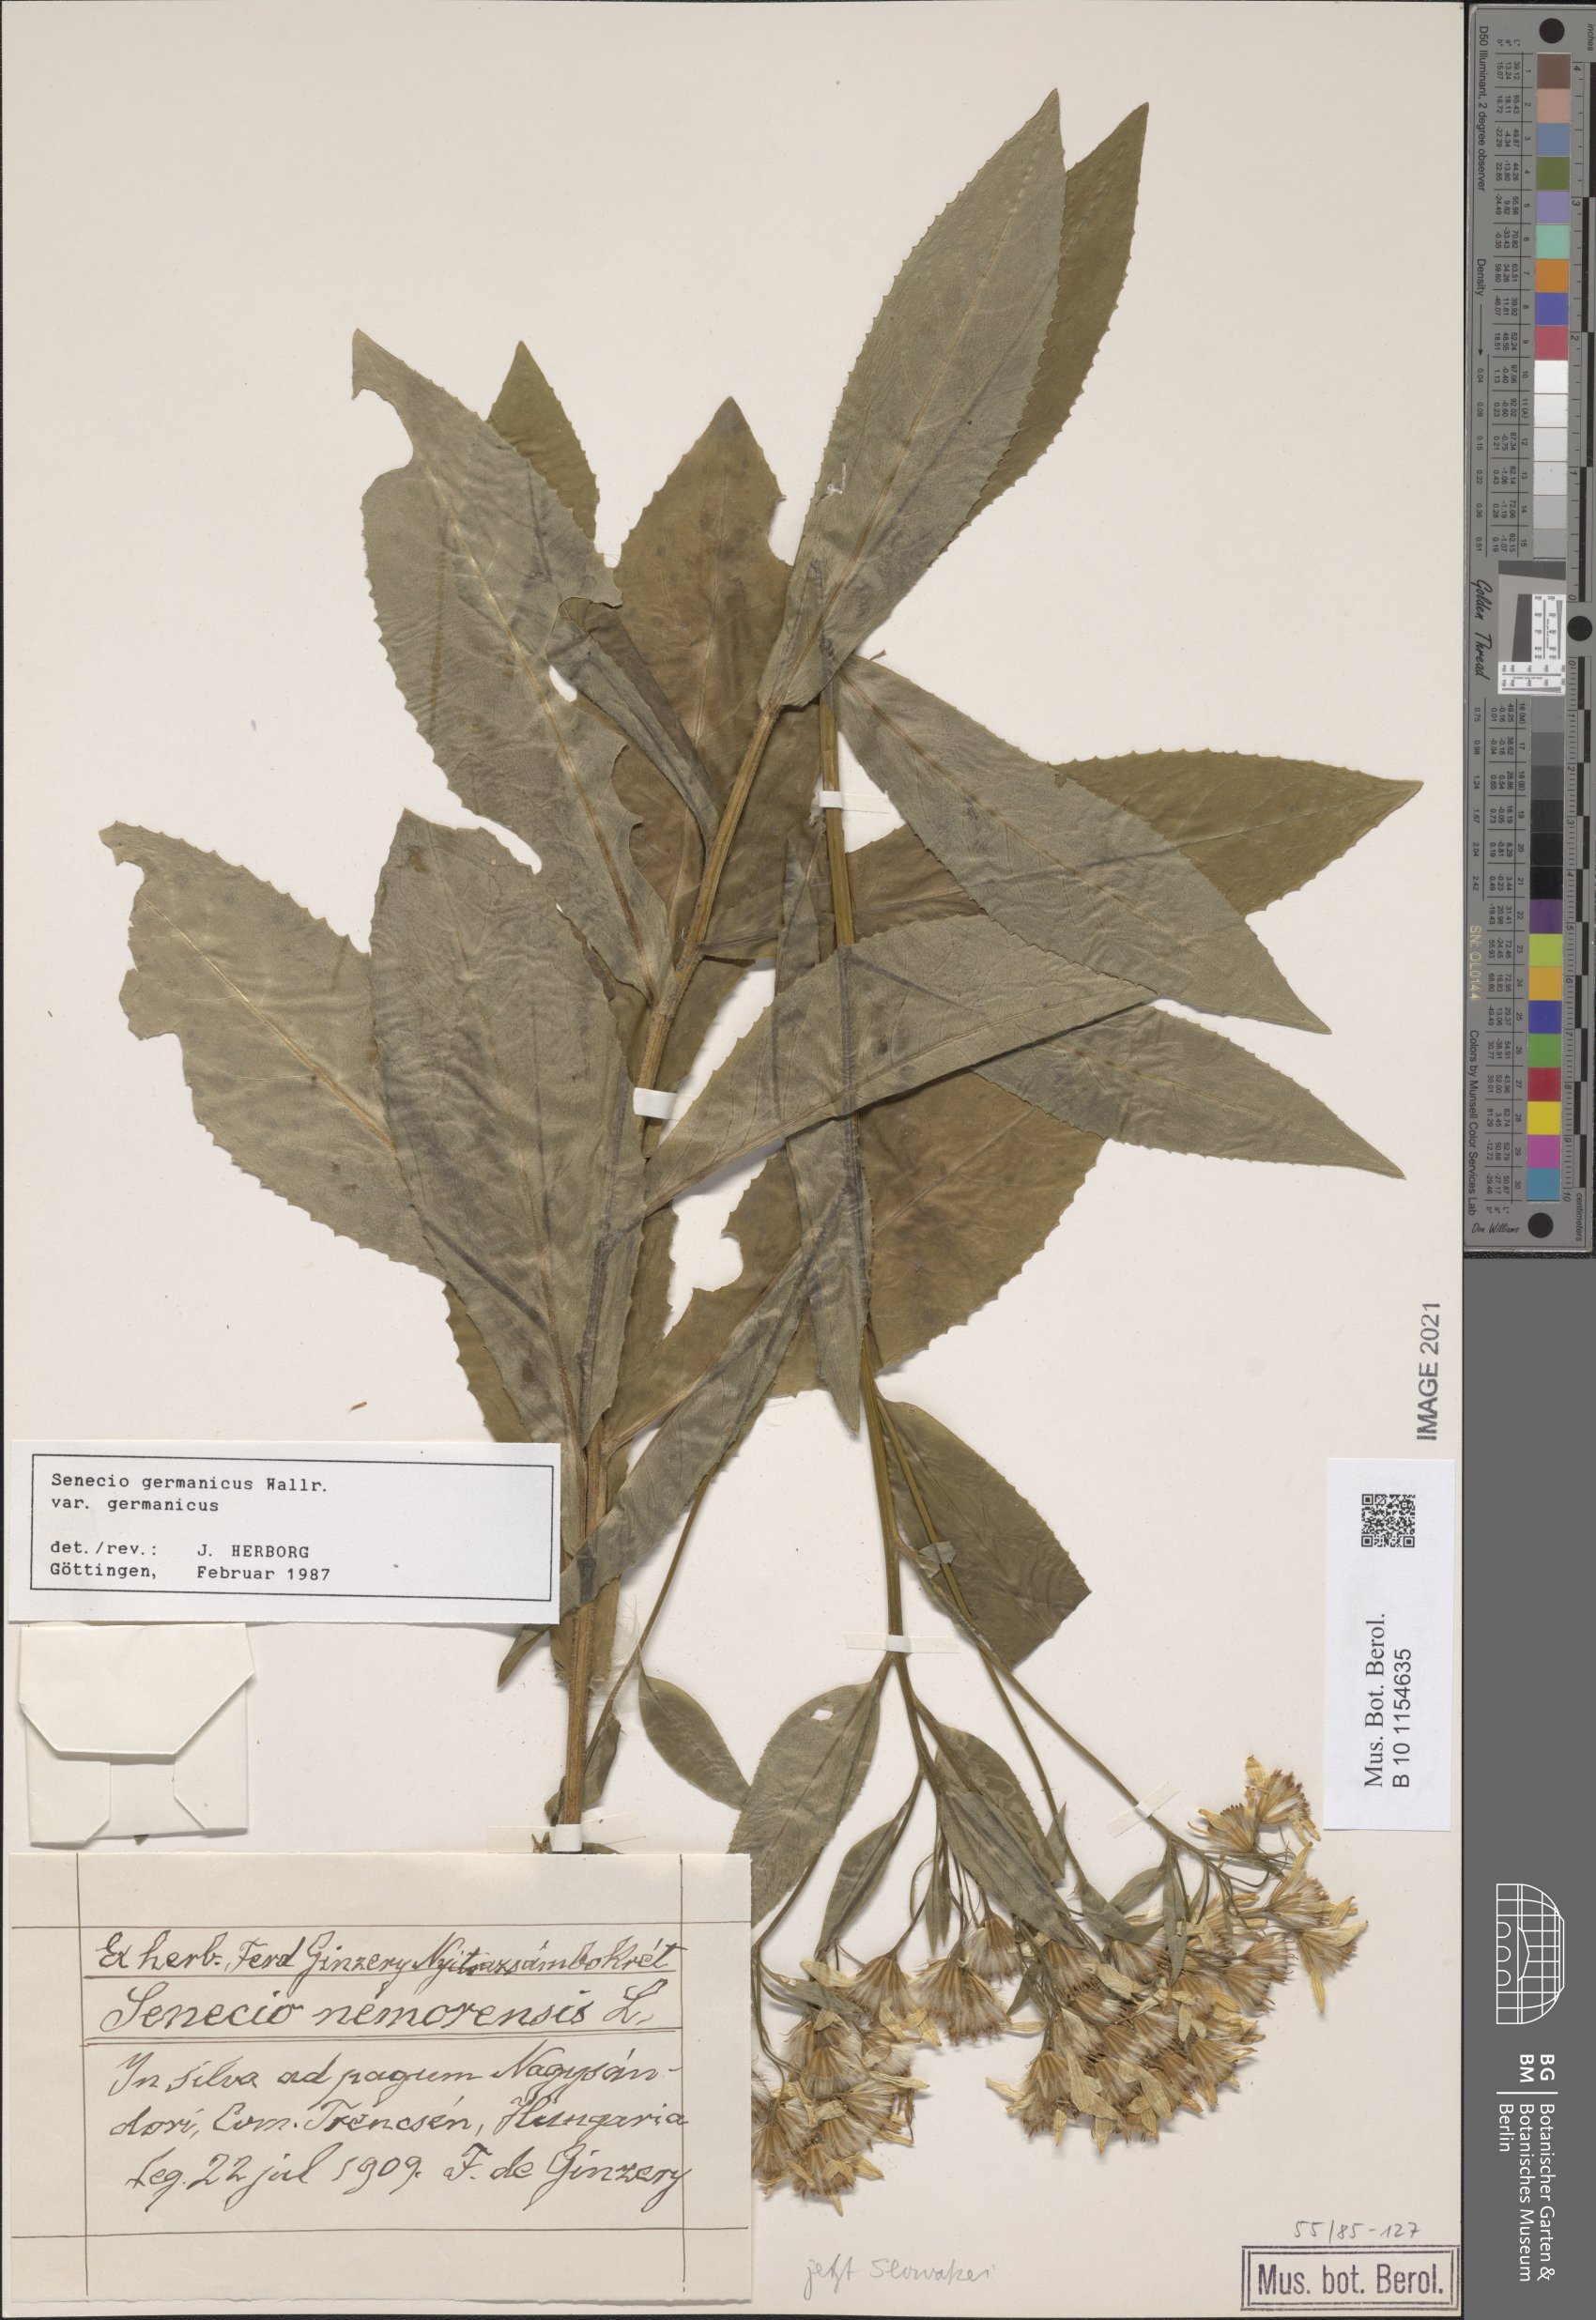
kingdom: Plantae
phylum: Tracheophyta
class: Magnoliopsida
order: Asterales
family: Asteraceae
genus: Senecio
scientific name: Senecio germanicus
